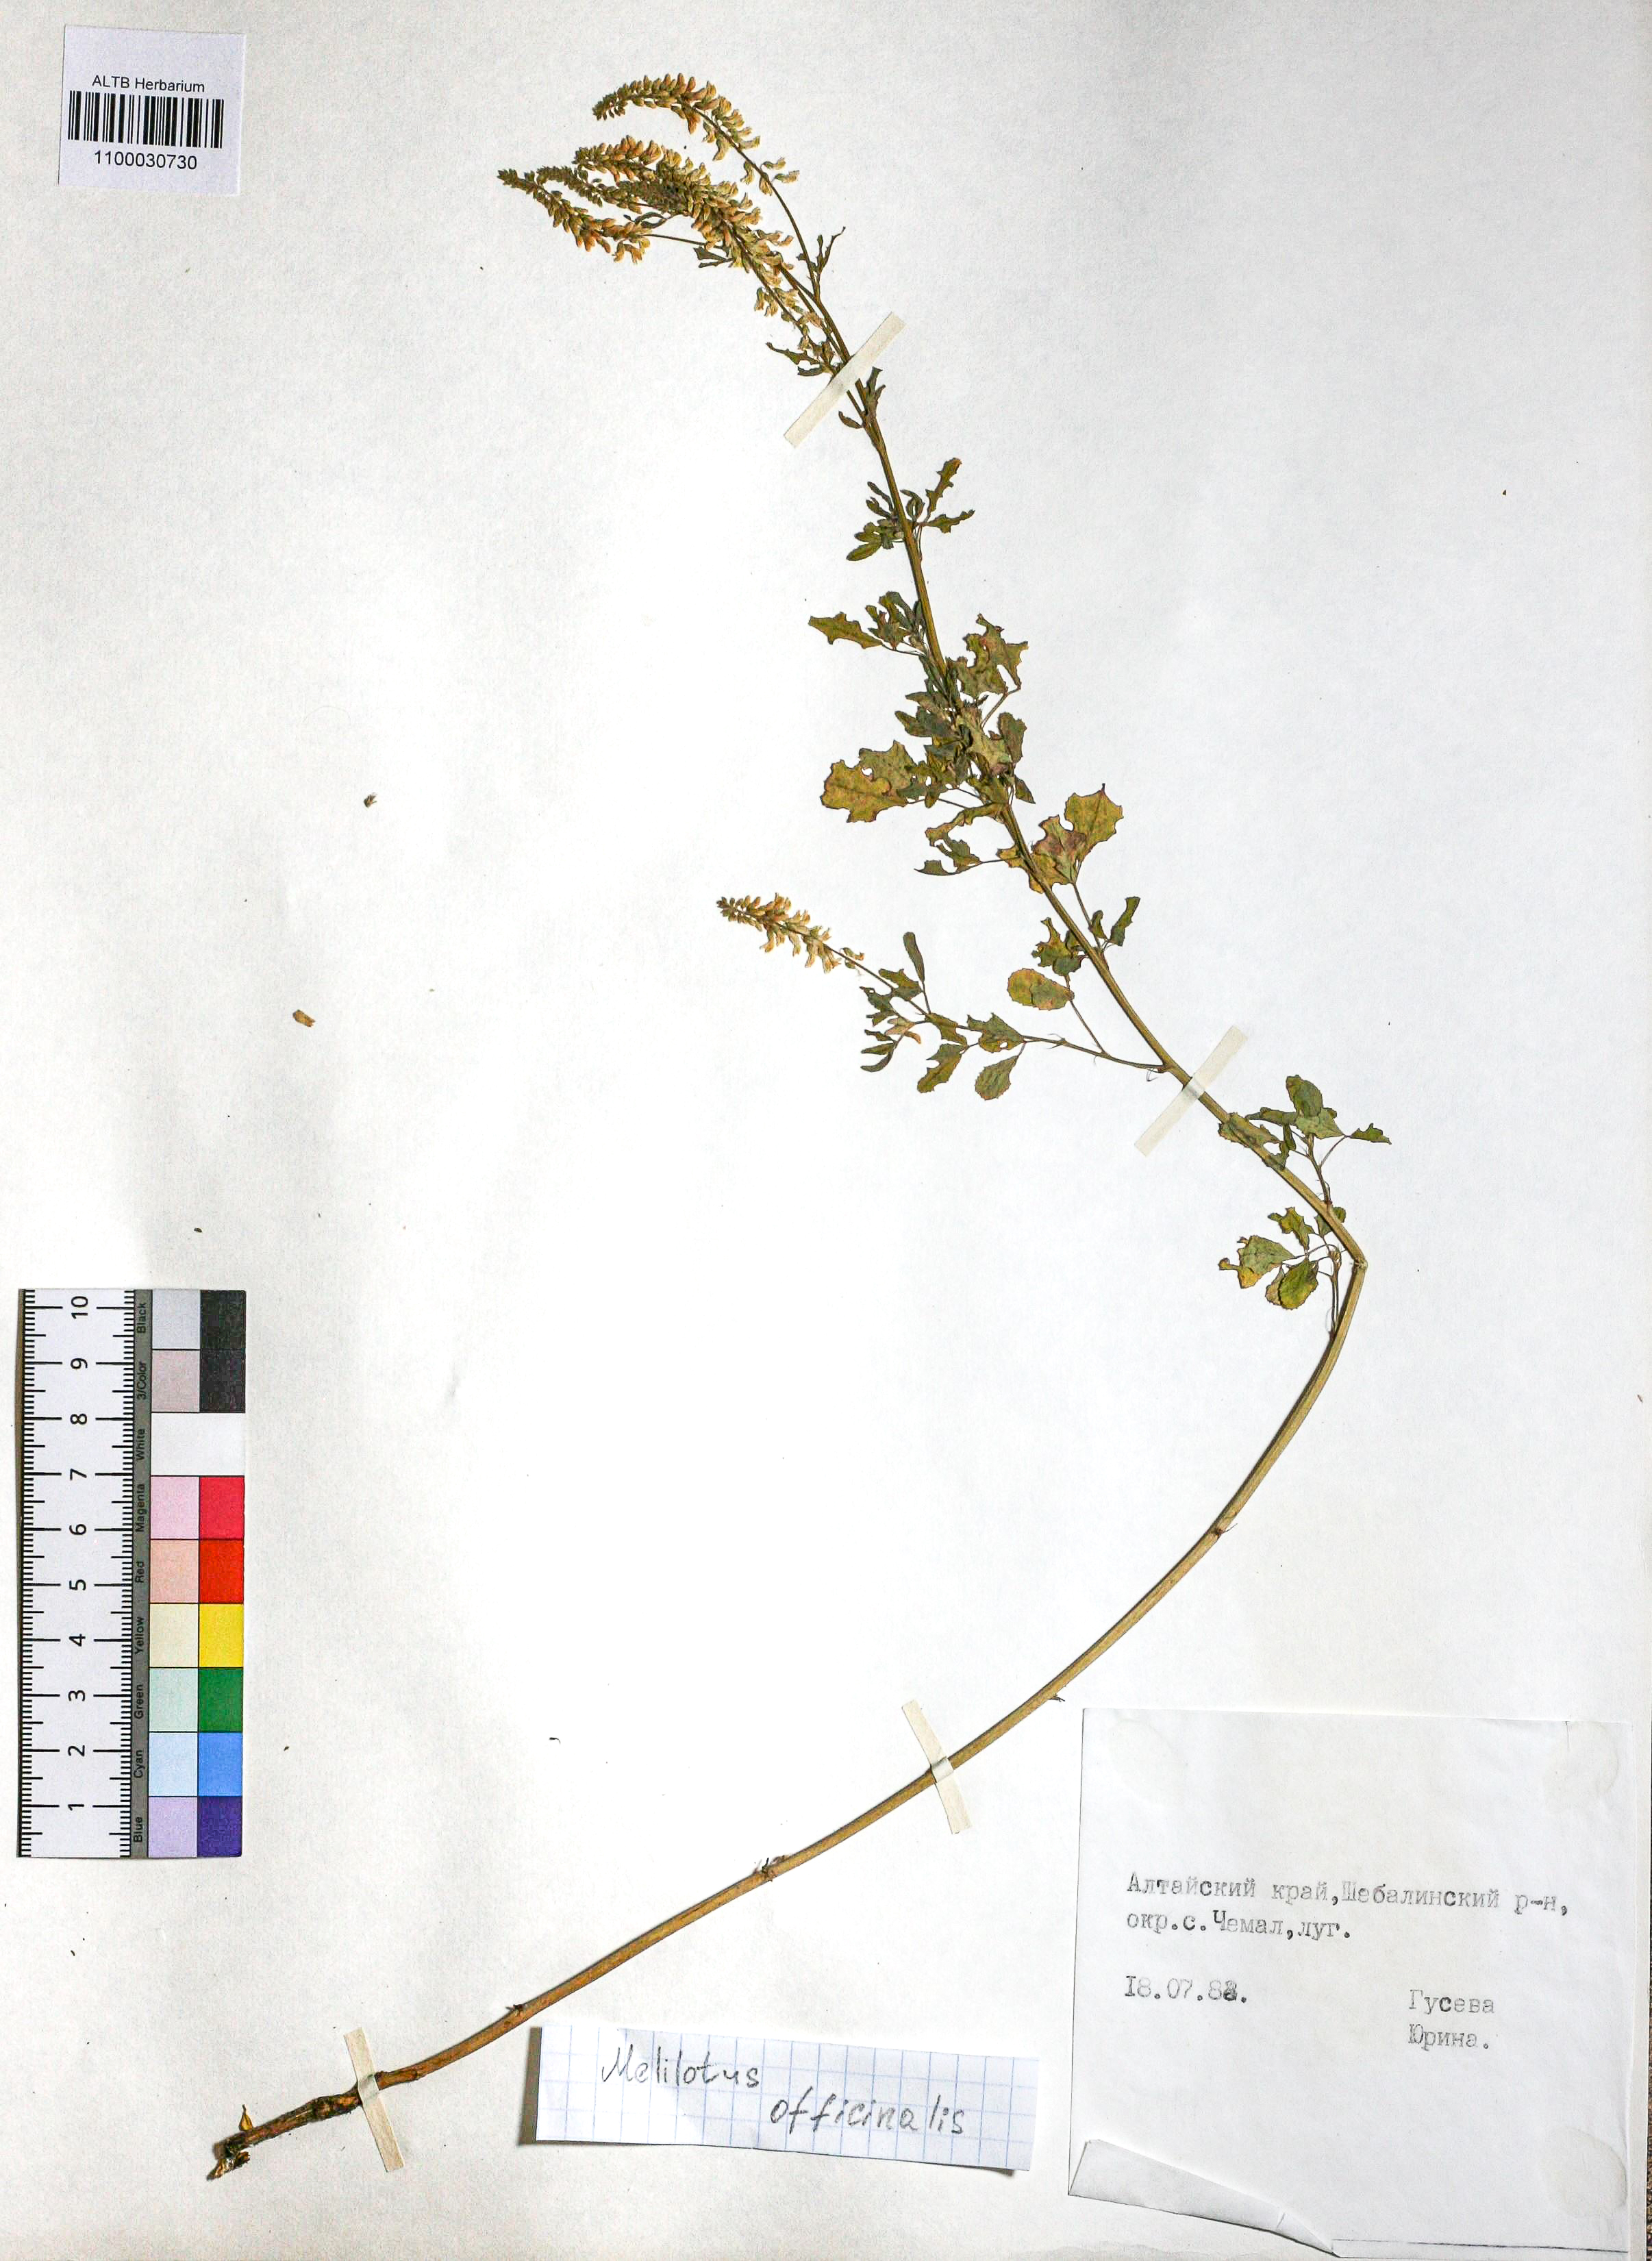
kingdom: Plantae
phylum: Tracheophyta
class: Magnoliopsida
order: Fabales
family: Fabaceae
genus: Melilotus
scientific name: Melilotus officinalis
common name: Sweetclover
